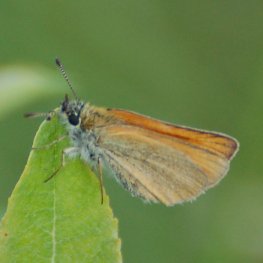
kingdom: Animalia
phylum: Arthropoda
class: Insecta
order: Lepidoptera
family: Hesperiidae
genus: Thymelicus
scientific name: Thymelicus lineola
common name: European Skipper
